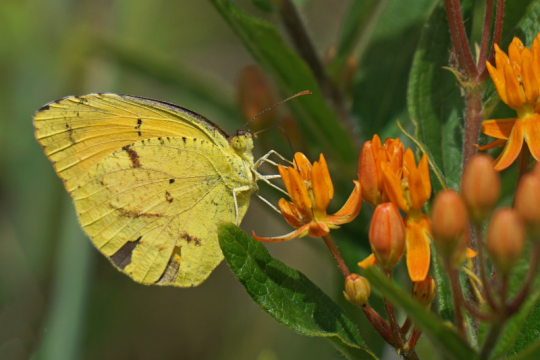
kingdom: Animalia
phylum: Arthropoda
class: Insecta
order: Lepidoptera
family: Pieridae
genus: Abaeis
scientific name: Abaeis nicippe
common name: Sleepy Orange
